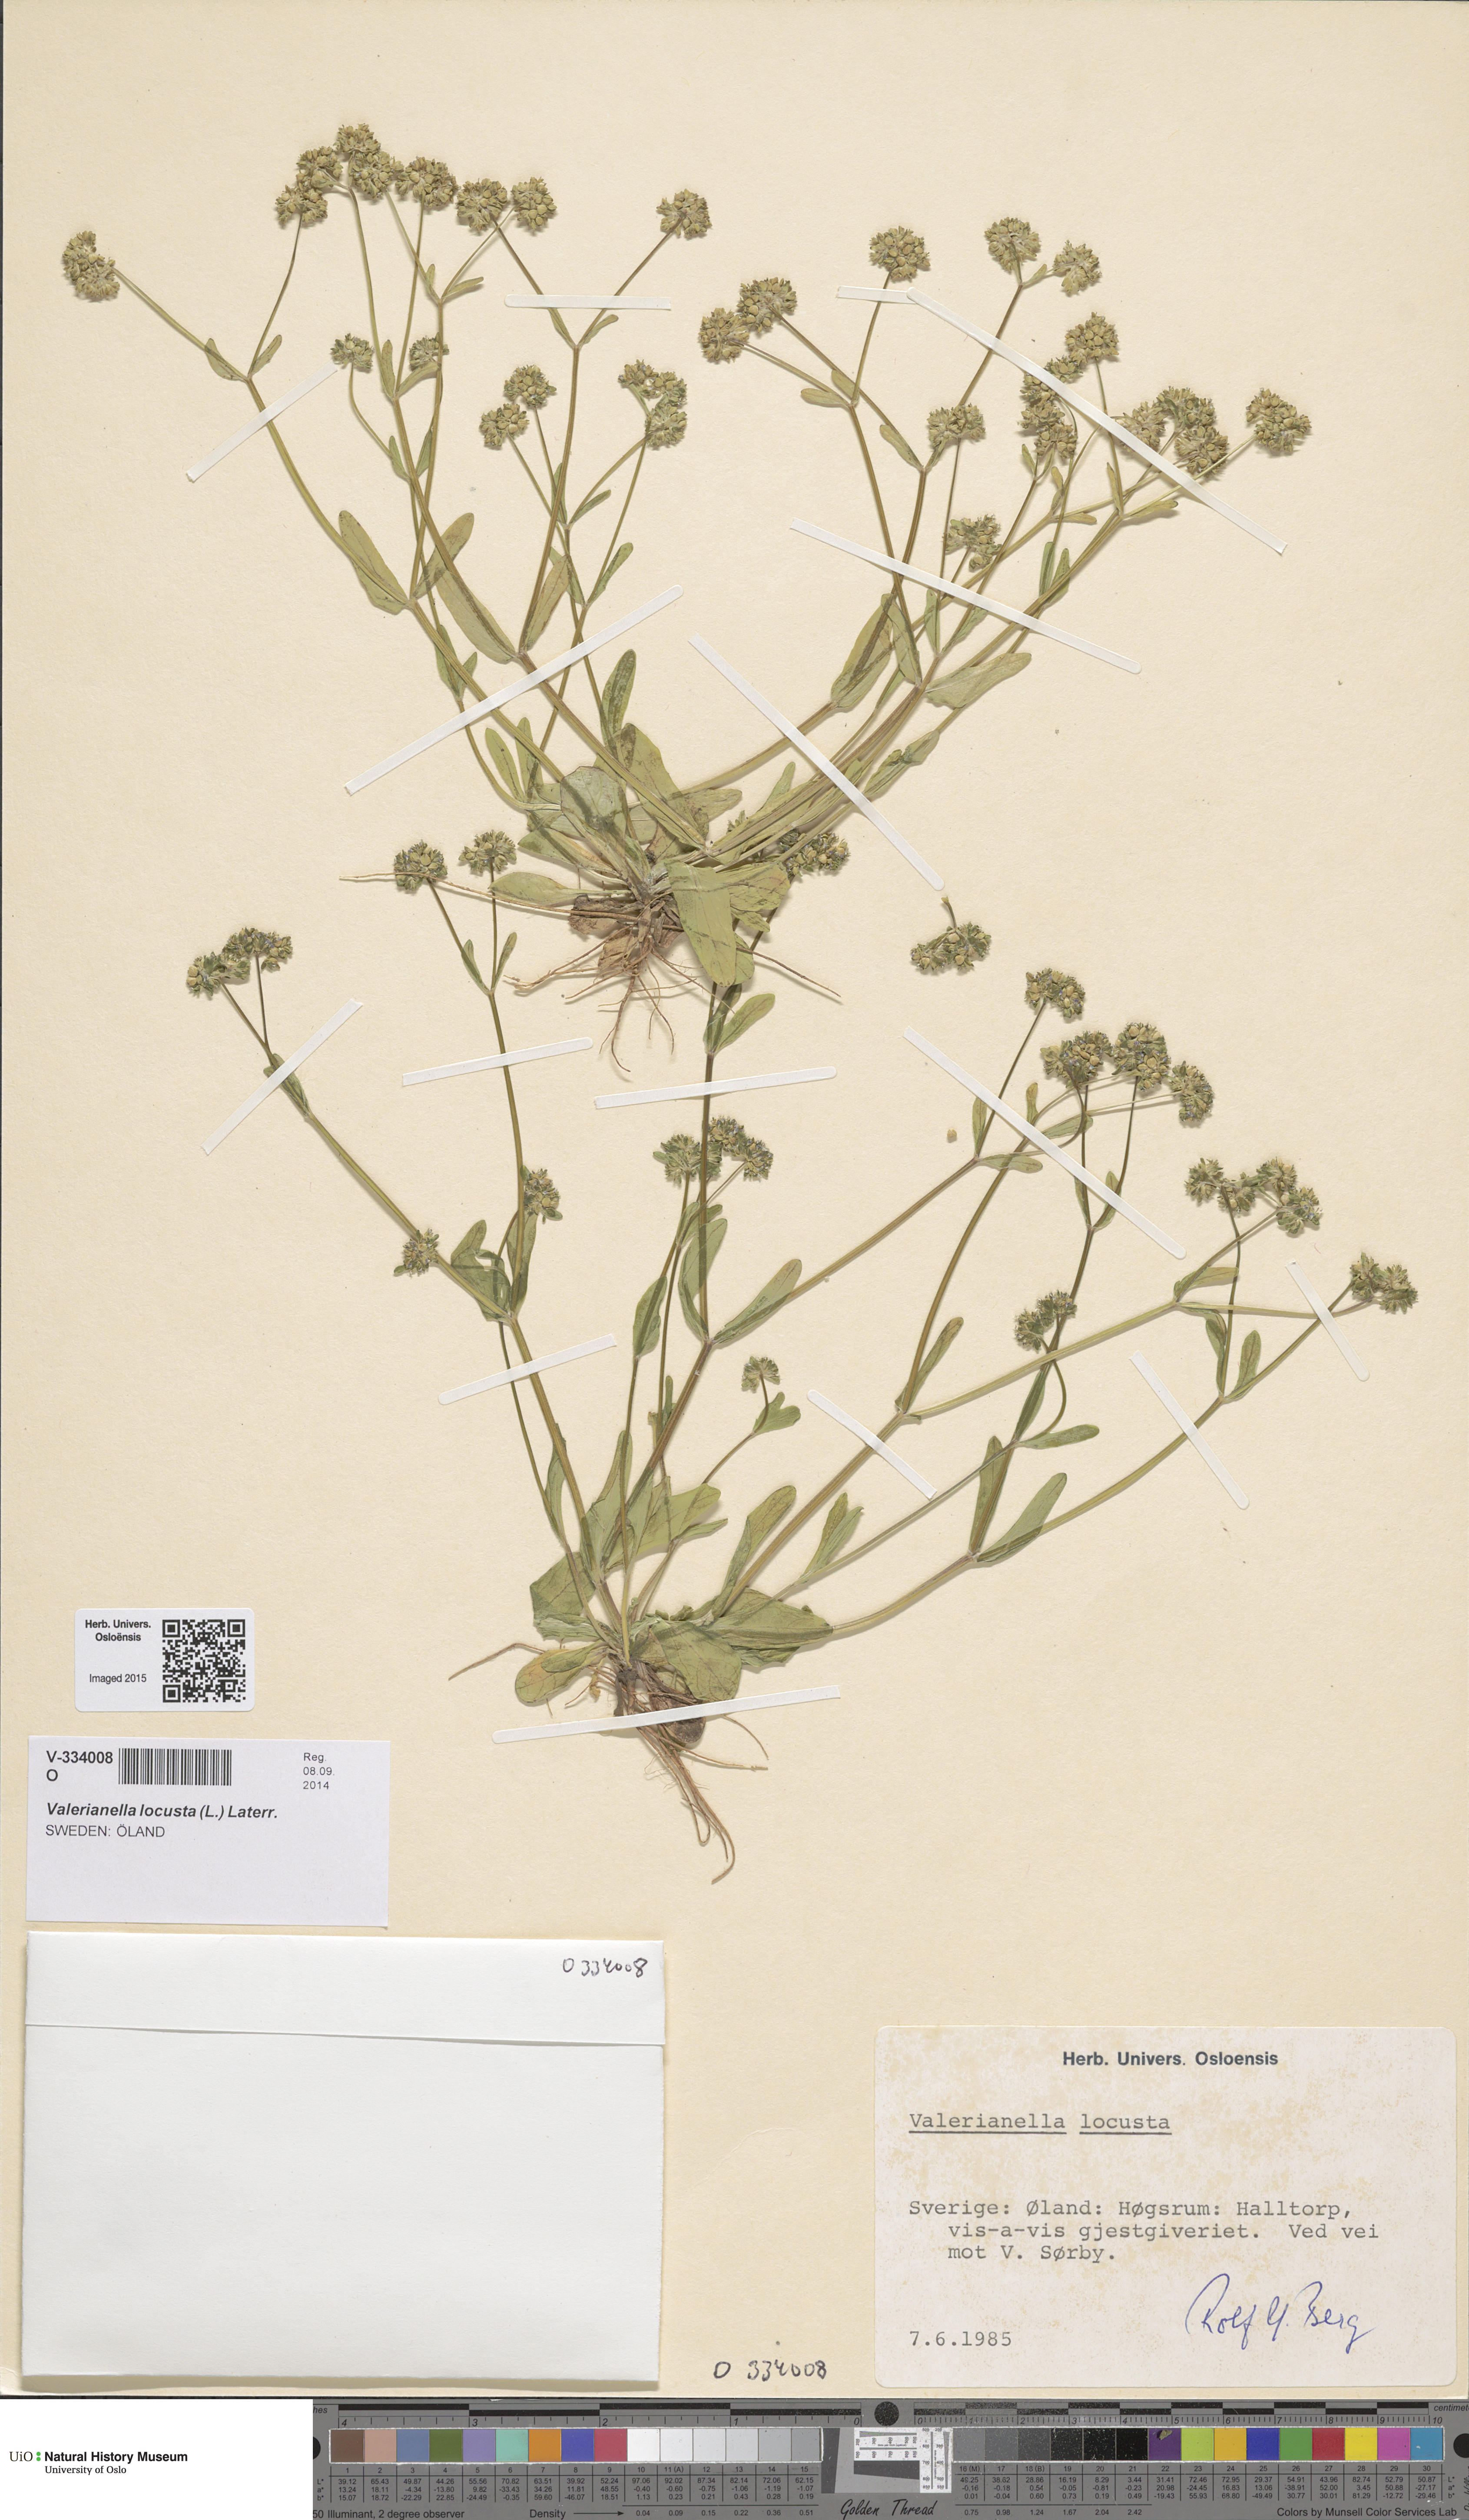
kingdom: Plantae
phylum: Tracheophyta
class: Magnoliopsida
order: Dipsacales
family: Caprifoliaceae
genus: Valerianella
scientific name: Valerianella locusta
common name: Common cornsalad
